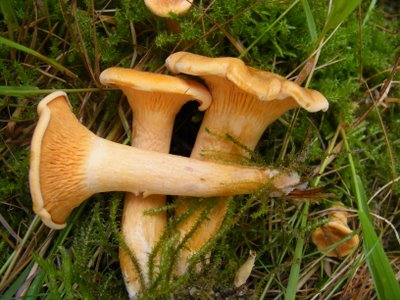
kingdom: Fungi
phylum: Basidiomycota
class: Agaricomycetes
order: Boletales
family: Hygrophoropsidaceae
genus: Hygrophoropsis
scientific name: Hygrophoropsis aurantiaca
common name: almindelig orangekantarel
